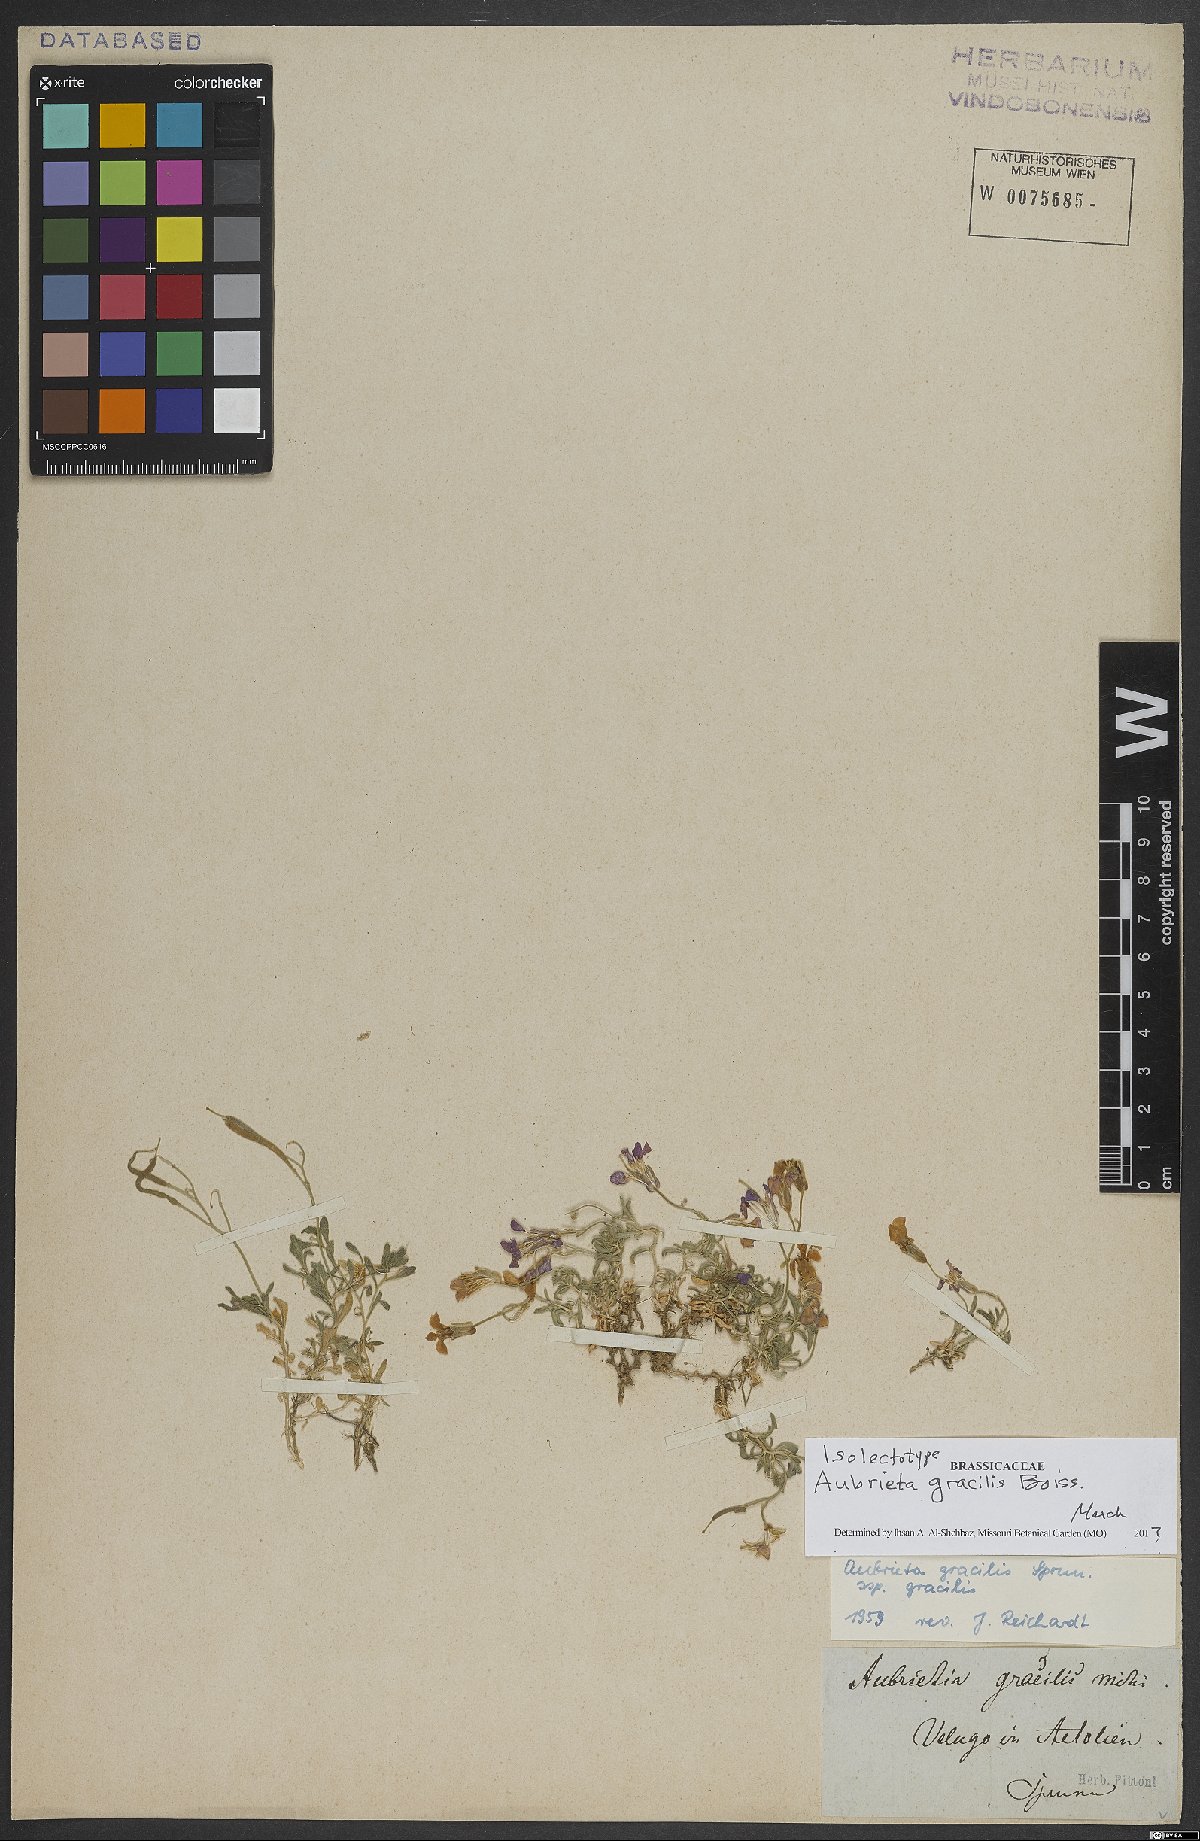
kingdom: Plantae
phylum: Tracheophyta
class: Magnoliopsida
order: Brassicales
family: Brassicaceae
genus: Aubrieta
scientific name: Aubrieta gracilis
